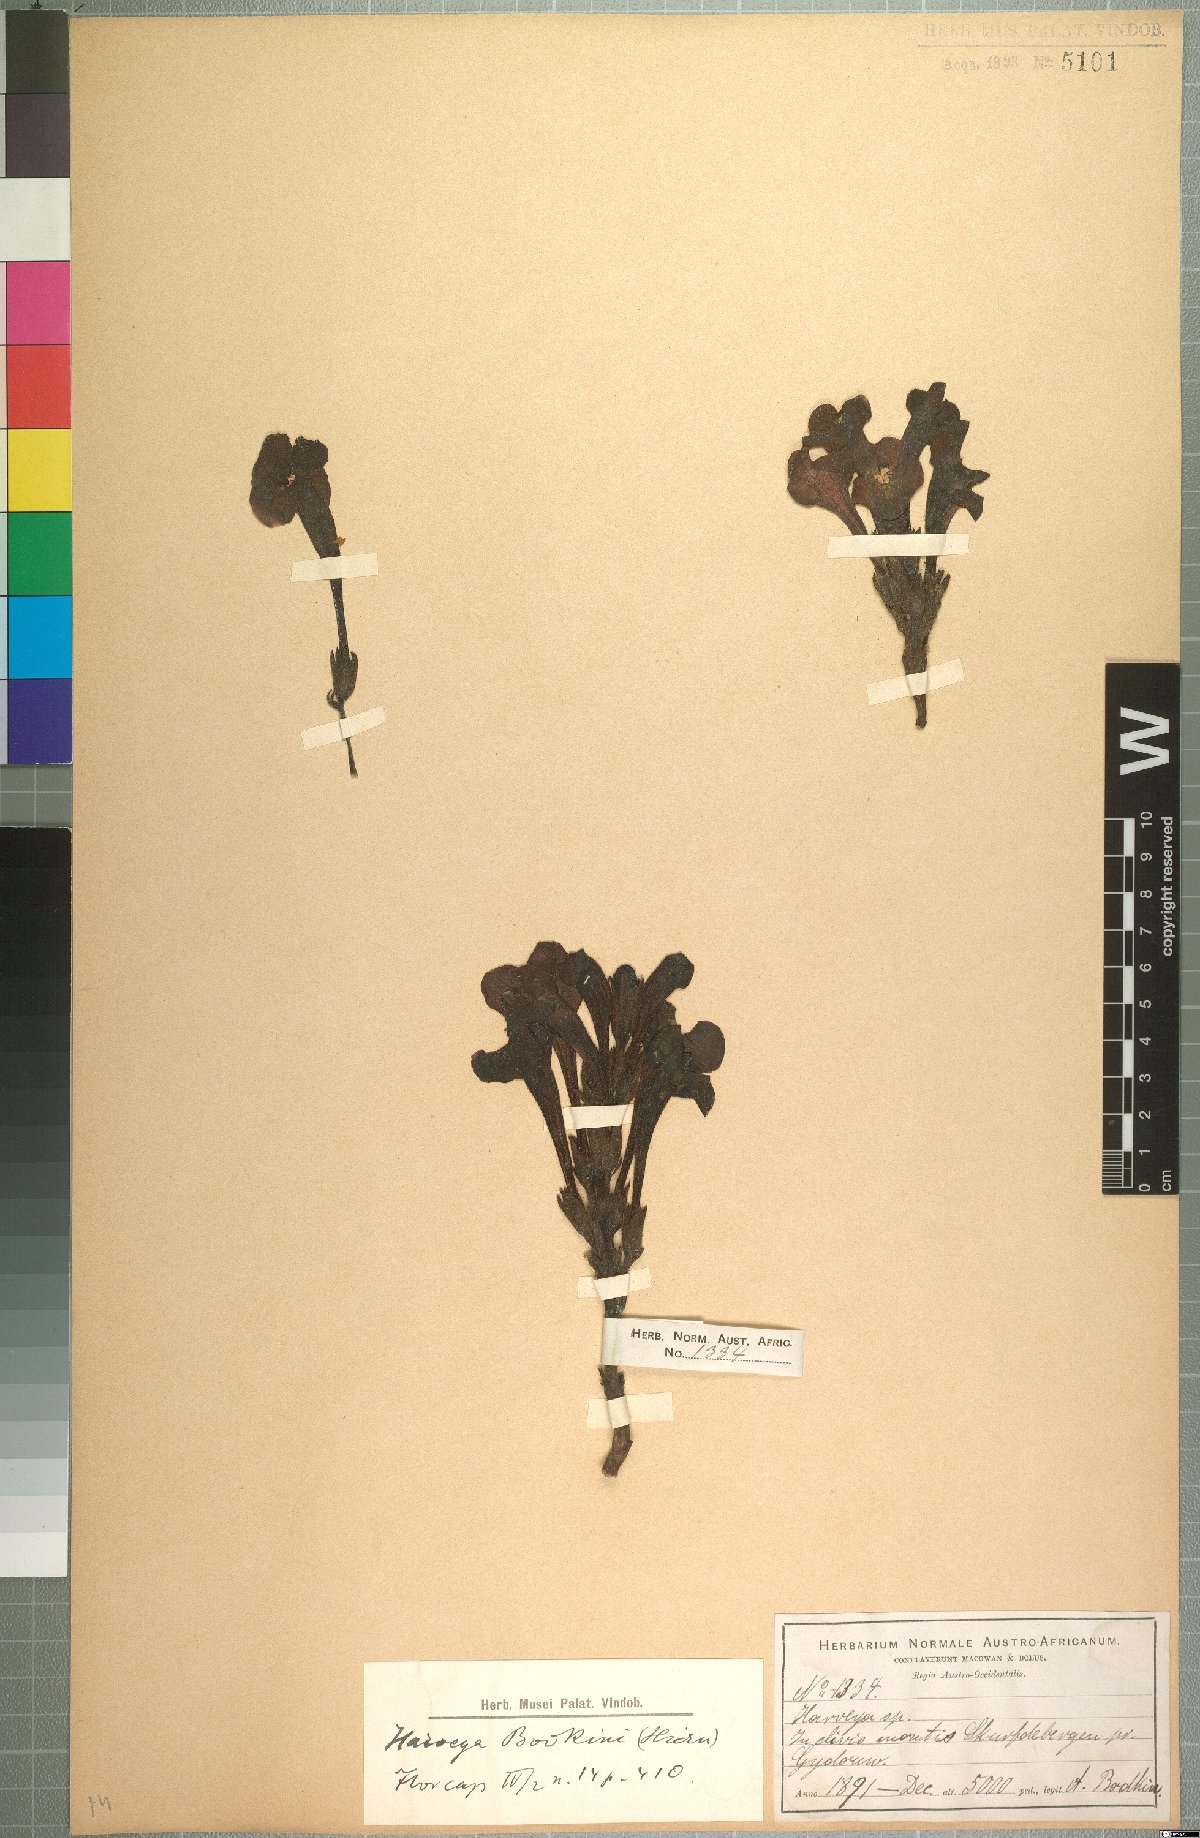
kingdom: Plantae
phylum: Tracheophyta
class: Magnoliopsida
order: Lamiales
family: Orobanchaceae
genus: Harveya
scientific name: Harveya bodkinii
